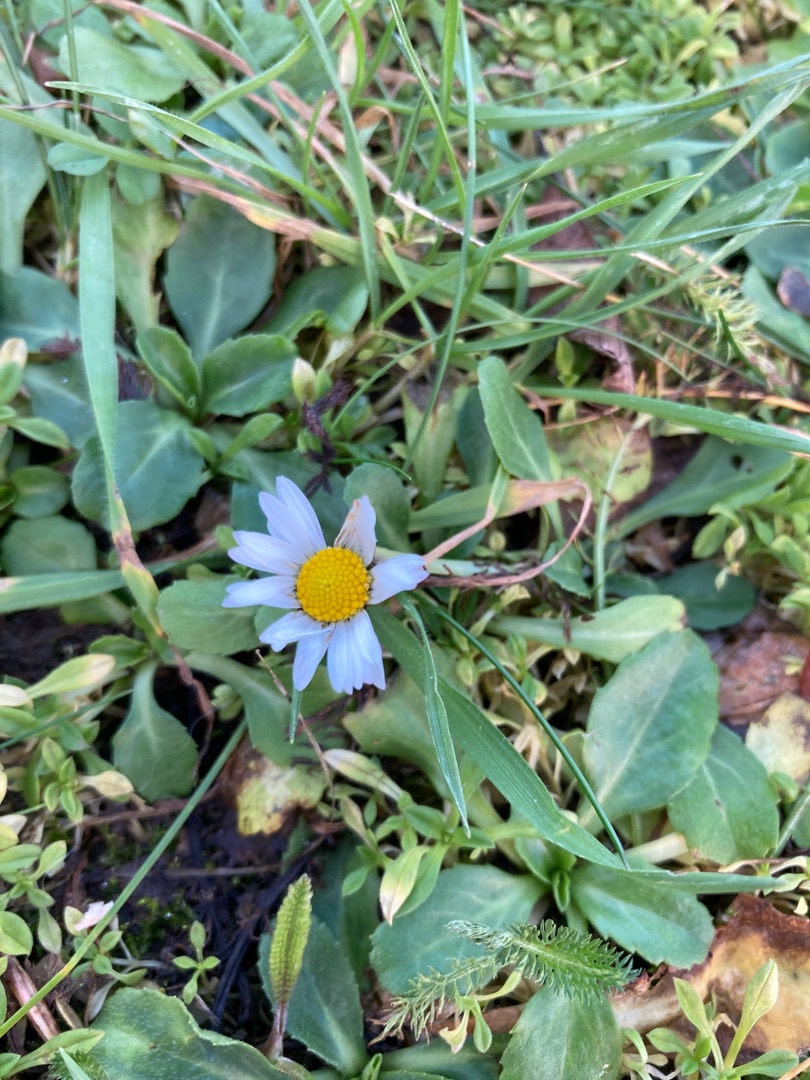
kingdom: Plantae
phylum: Tracheophyta
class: Magnoliopsida
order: Asterales
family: Asteraceae
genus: Bellis
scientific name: Bellis perennis
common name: Tusindfryd
